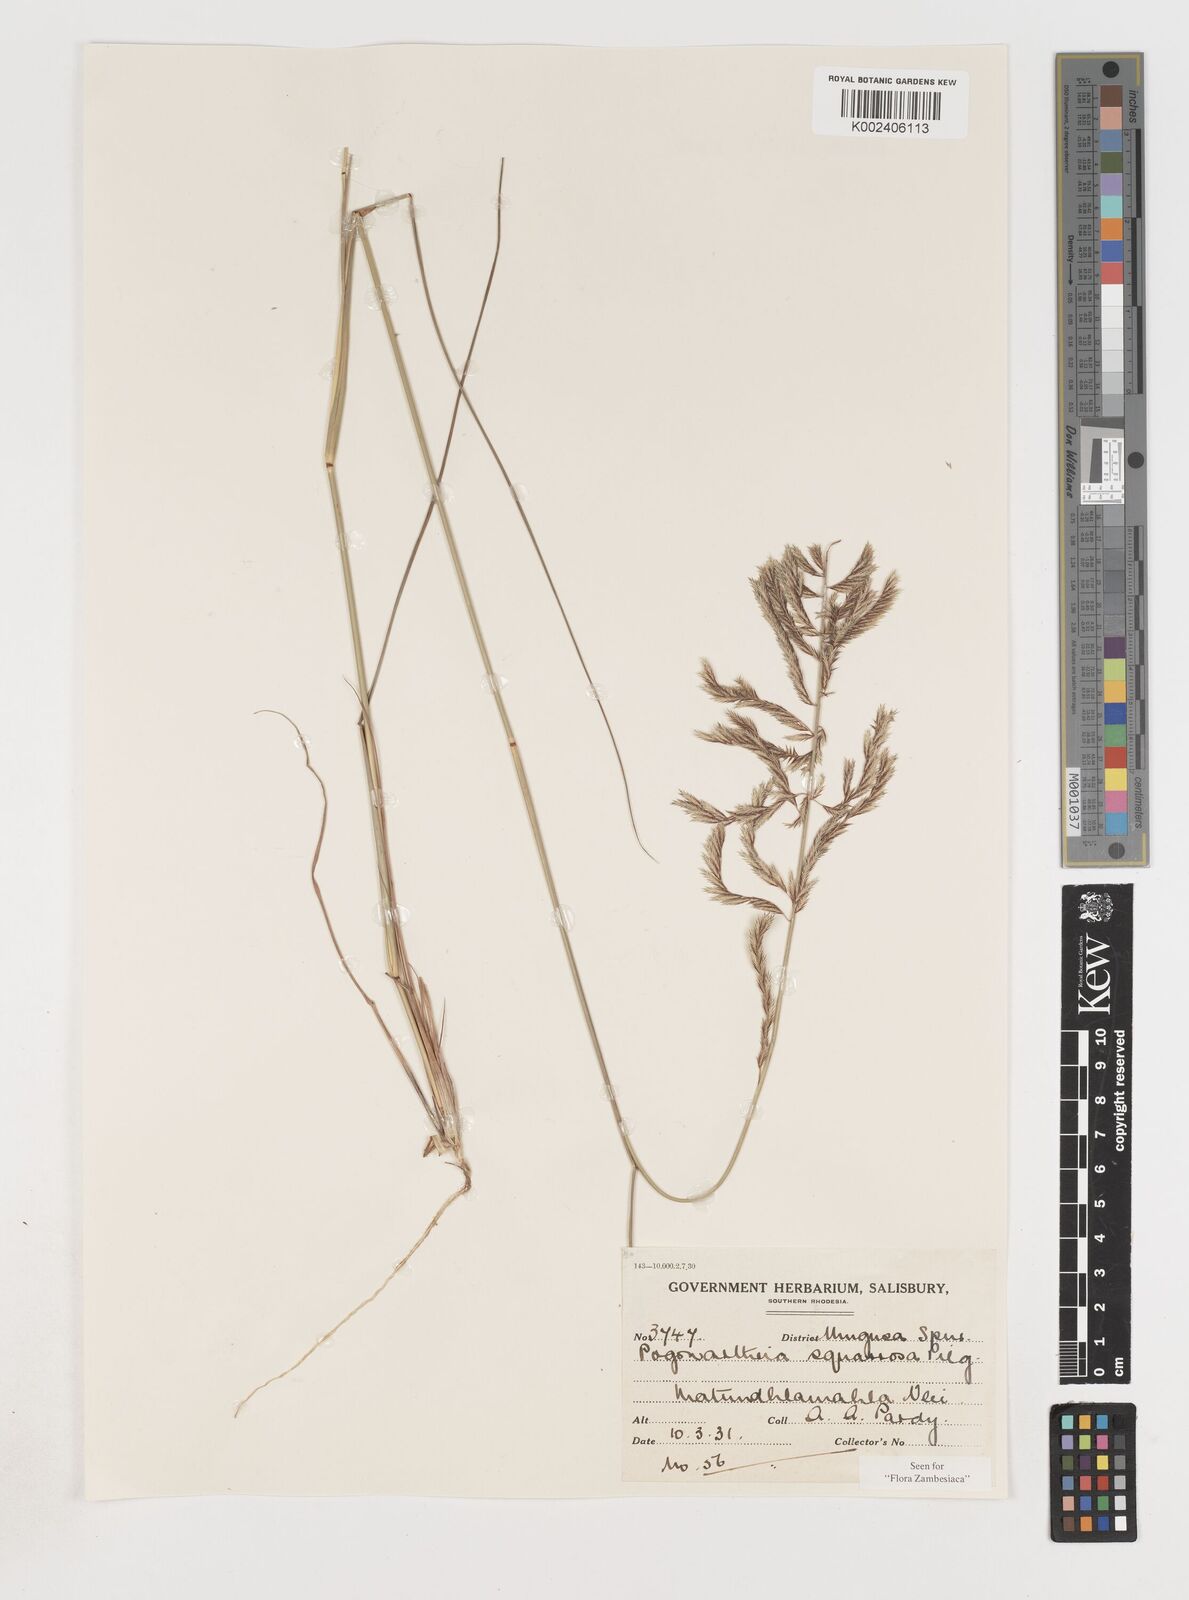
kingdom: Plantae
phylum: Tracheophyta
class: Liliopsida
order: Poales
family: Poaceae
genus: Pogonarthria
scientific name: Pogonarthria squarrosa
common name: Grass
